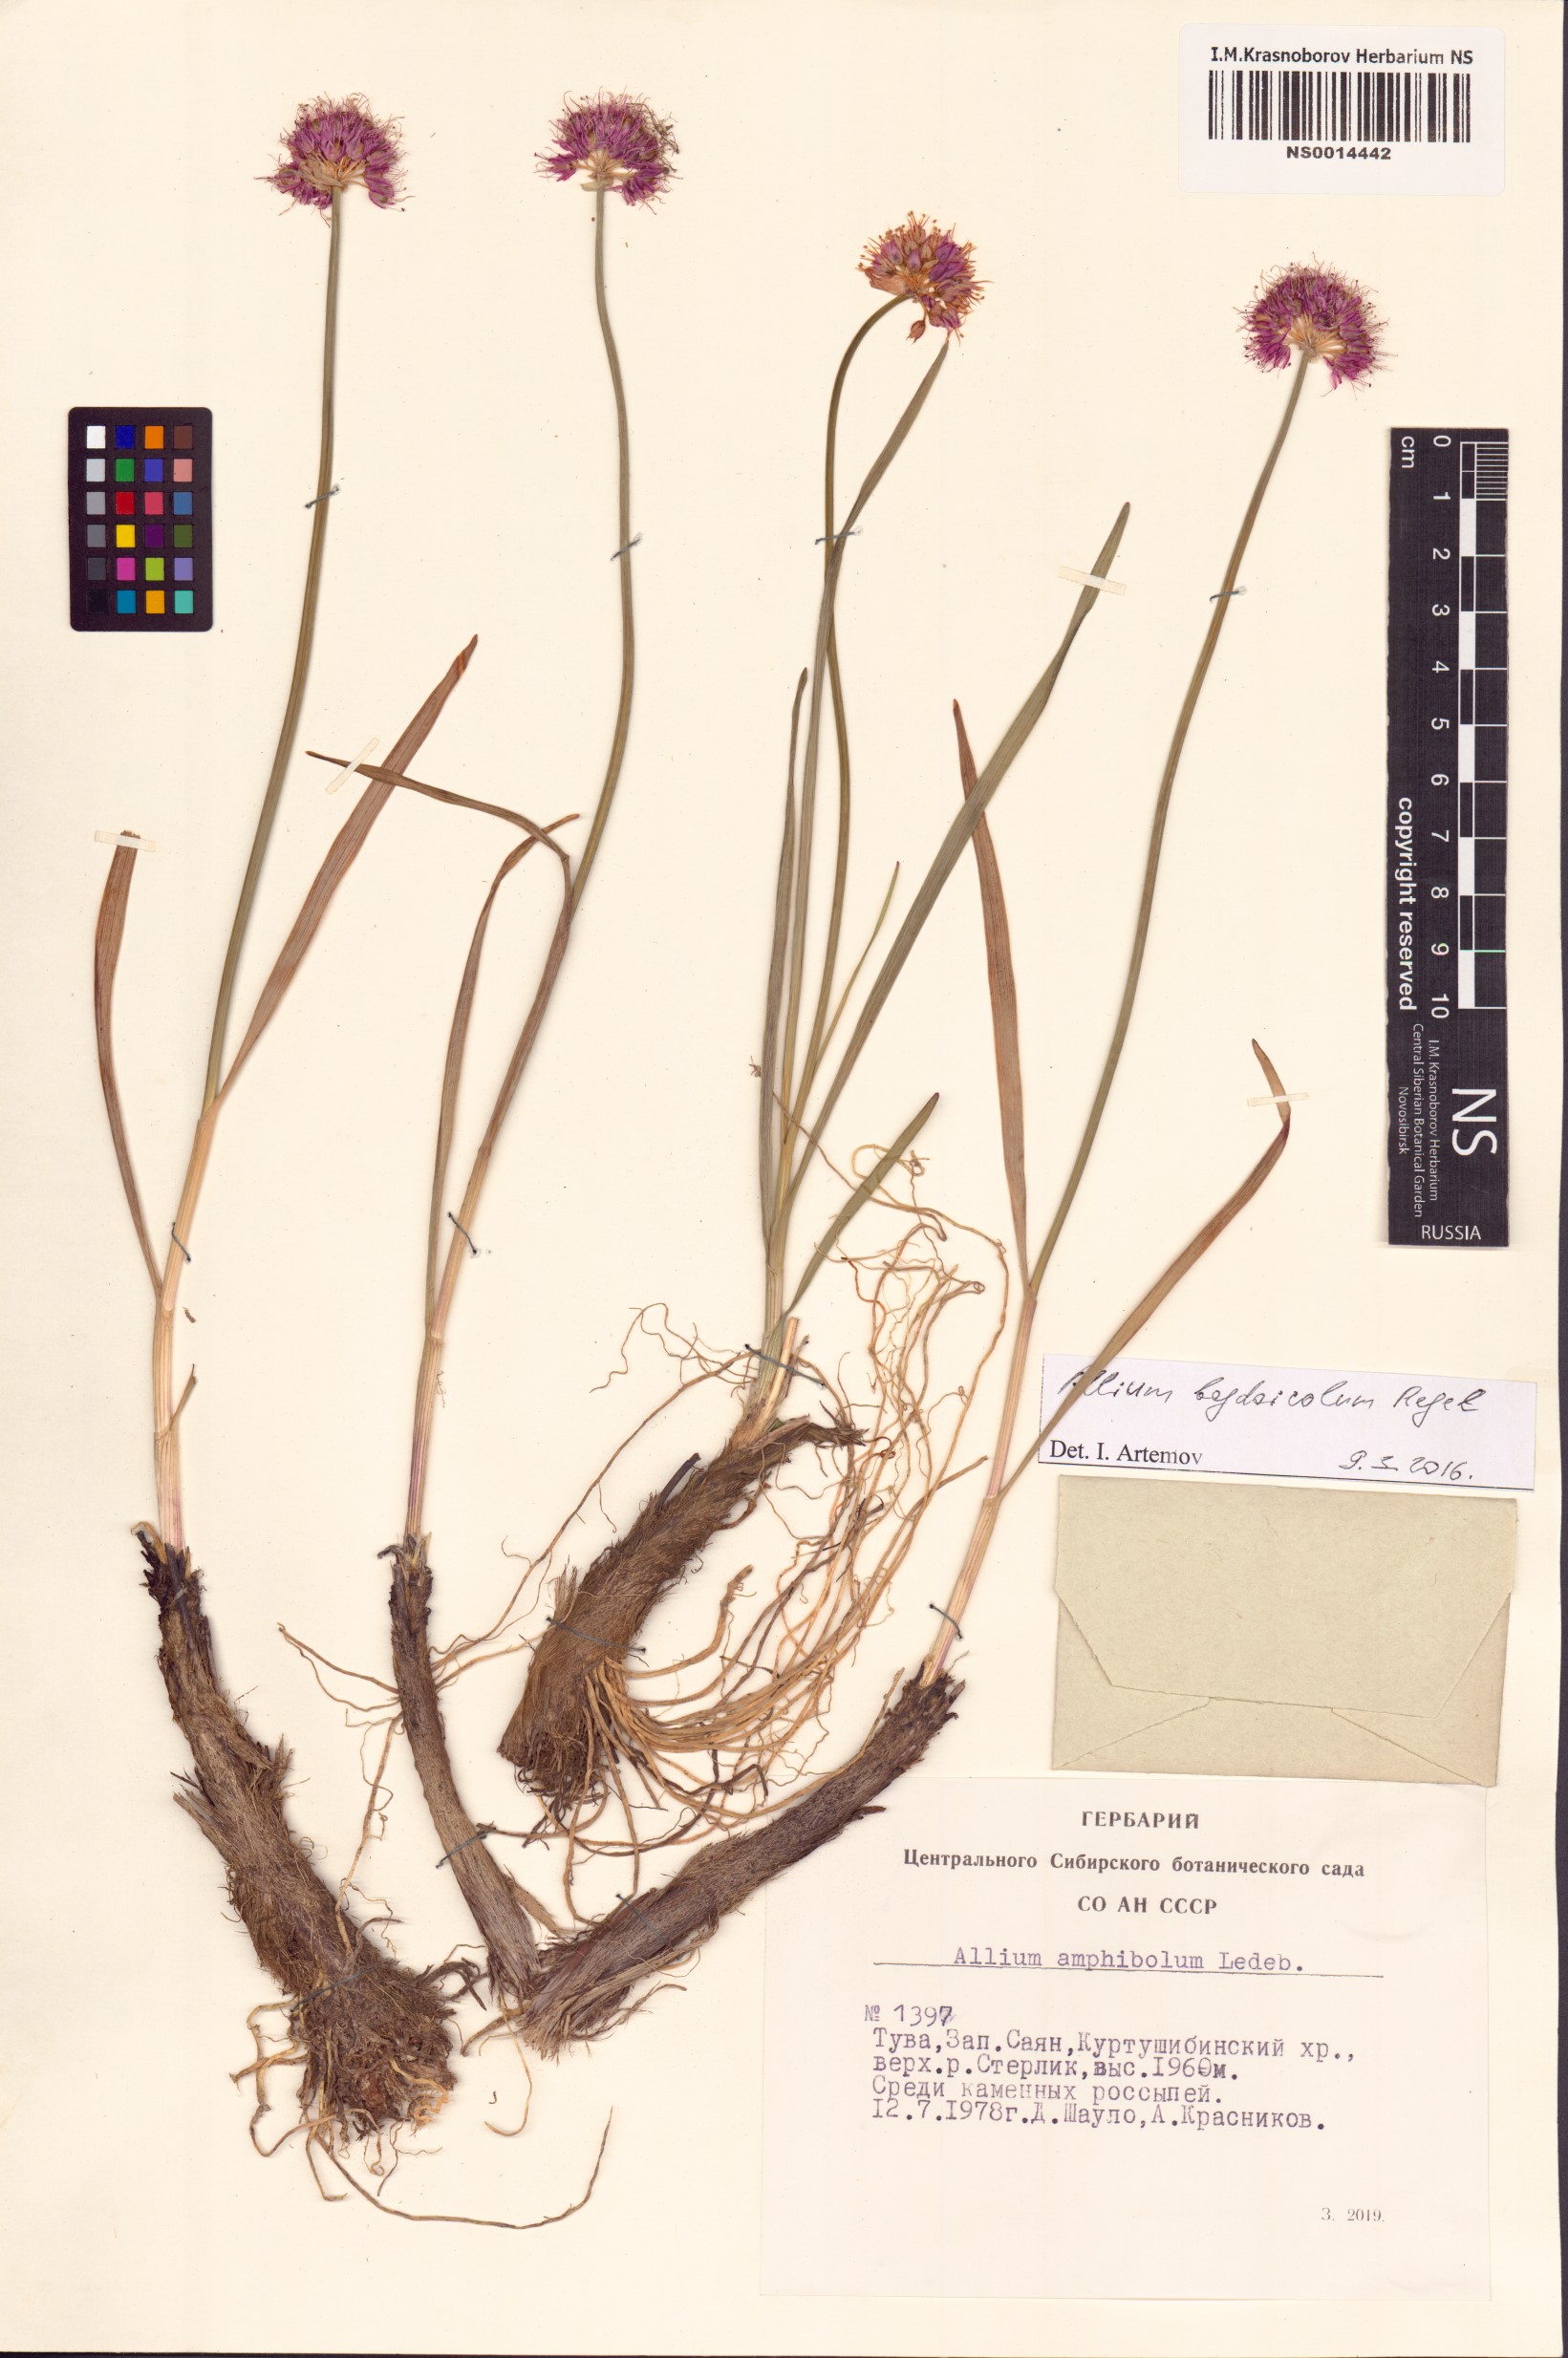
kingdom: Plantae
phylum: Tracheophyta
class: Liliopsida
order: Asparagales
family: Amaryllidaceae
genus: Allium
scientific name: Allium schrenkii
